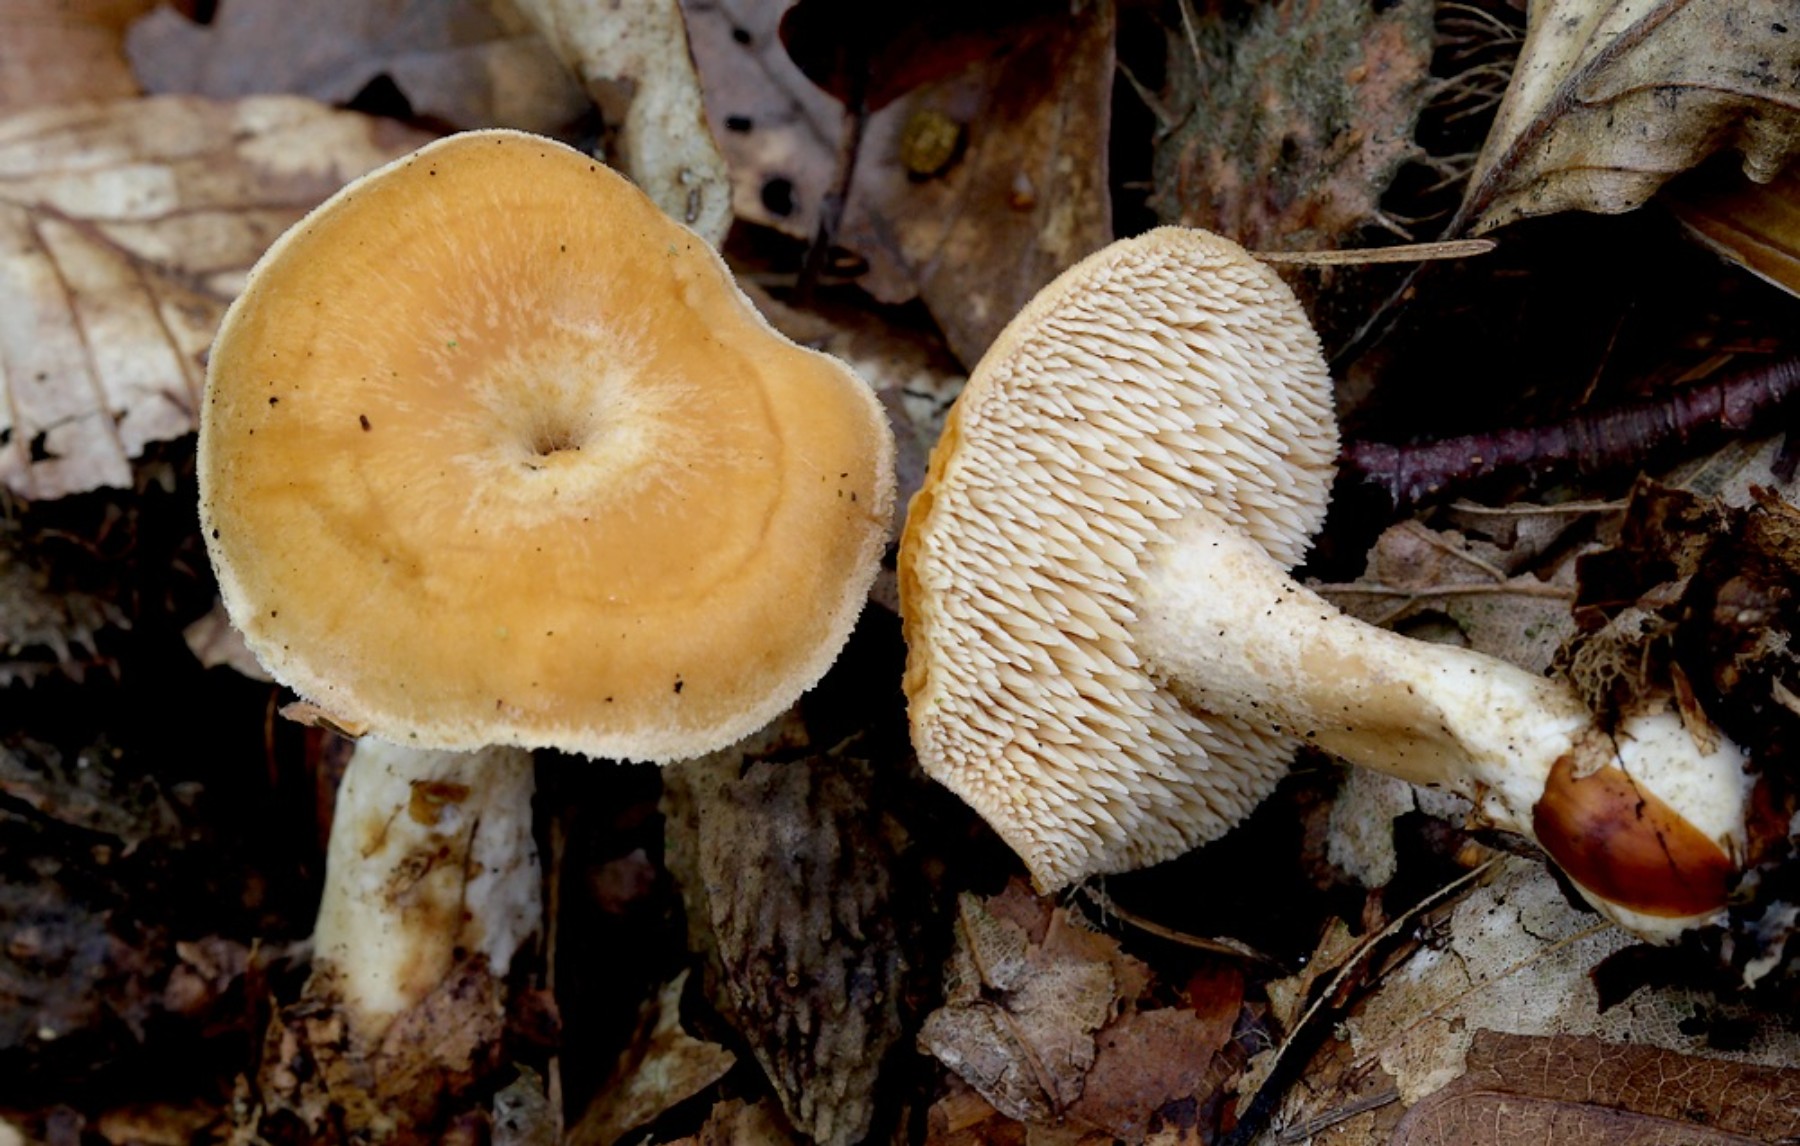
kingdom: Fungi
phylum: Basidiomycota
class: Agaricomycetes
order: Cantharellales
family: Hydnaceae
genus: Hydnum
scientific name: Hydnum umbilicatum
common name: navle-pigsvamp
